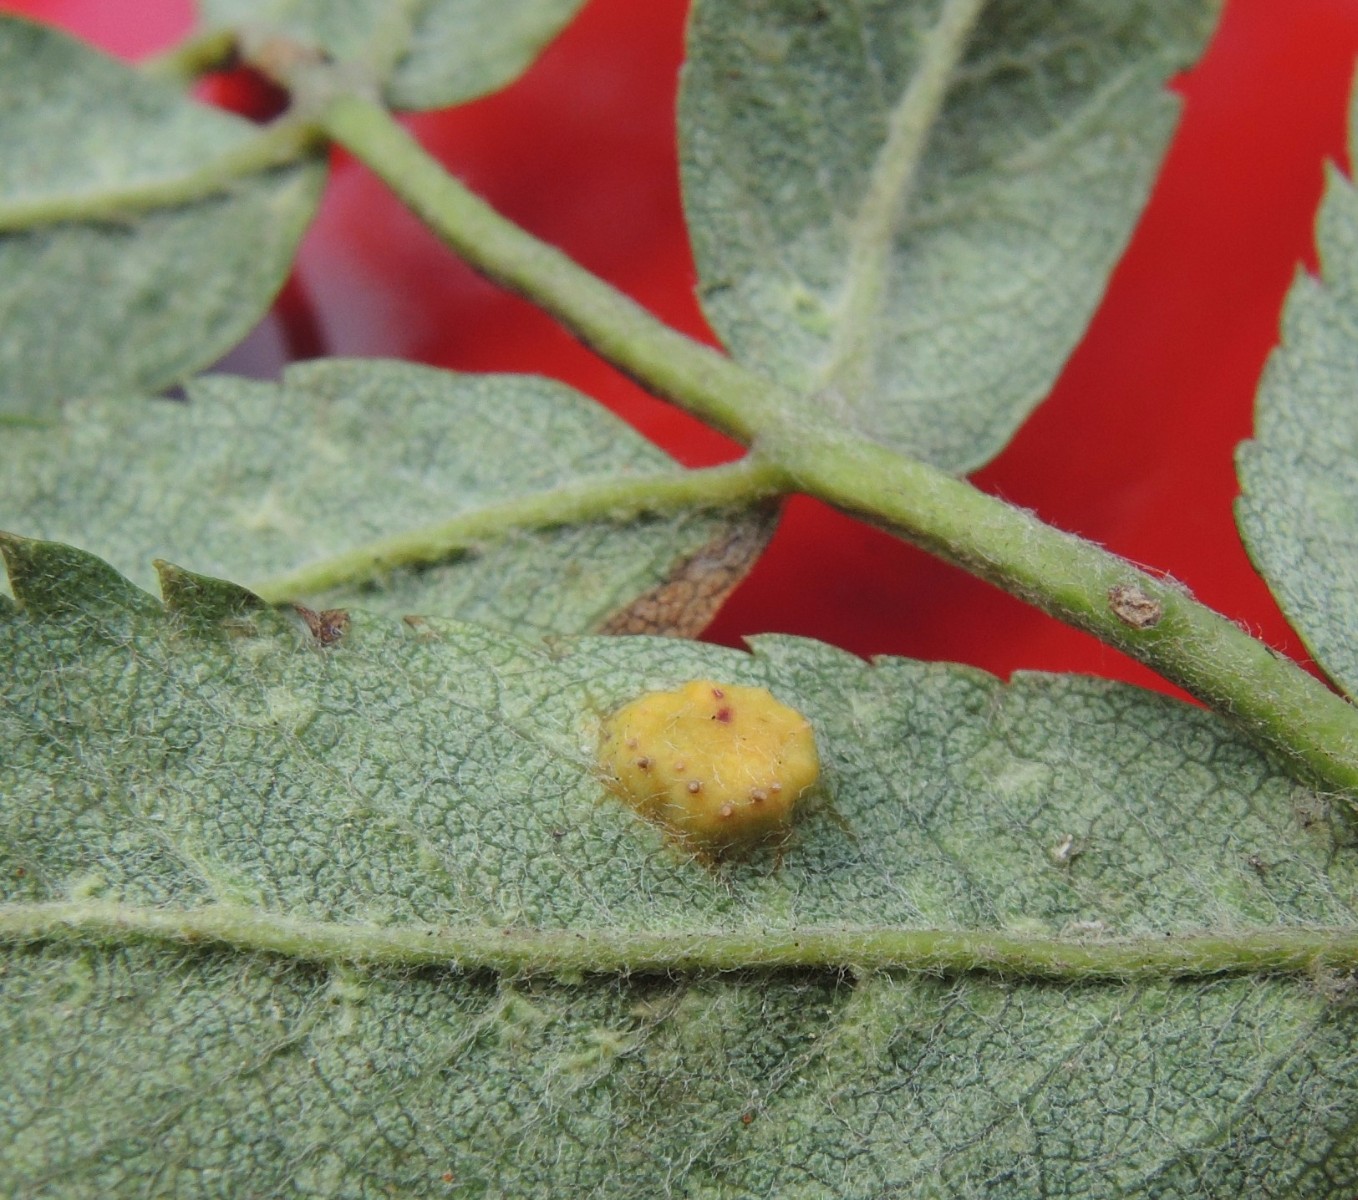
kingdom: Fungi
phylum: Basidiomycota
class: Pucciniomycetes
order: Pucciniales
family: Gymnosporangiaceae
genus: Gymnosporangium
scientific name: Gymnosporangium cornutum
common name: rønnehorn-bævrerust
